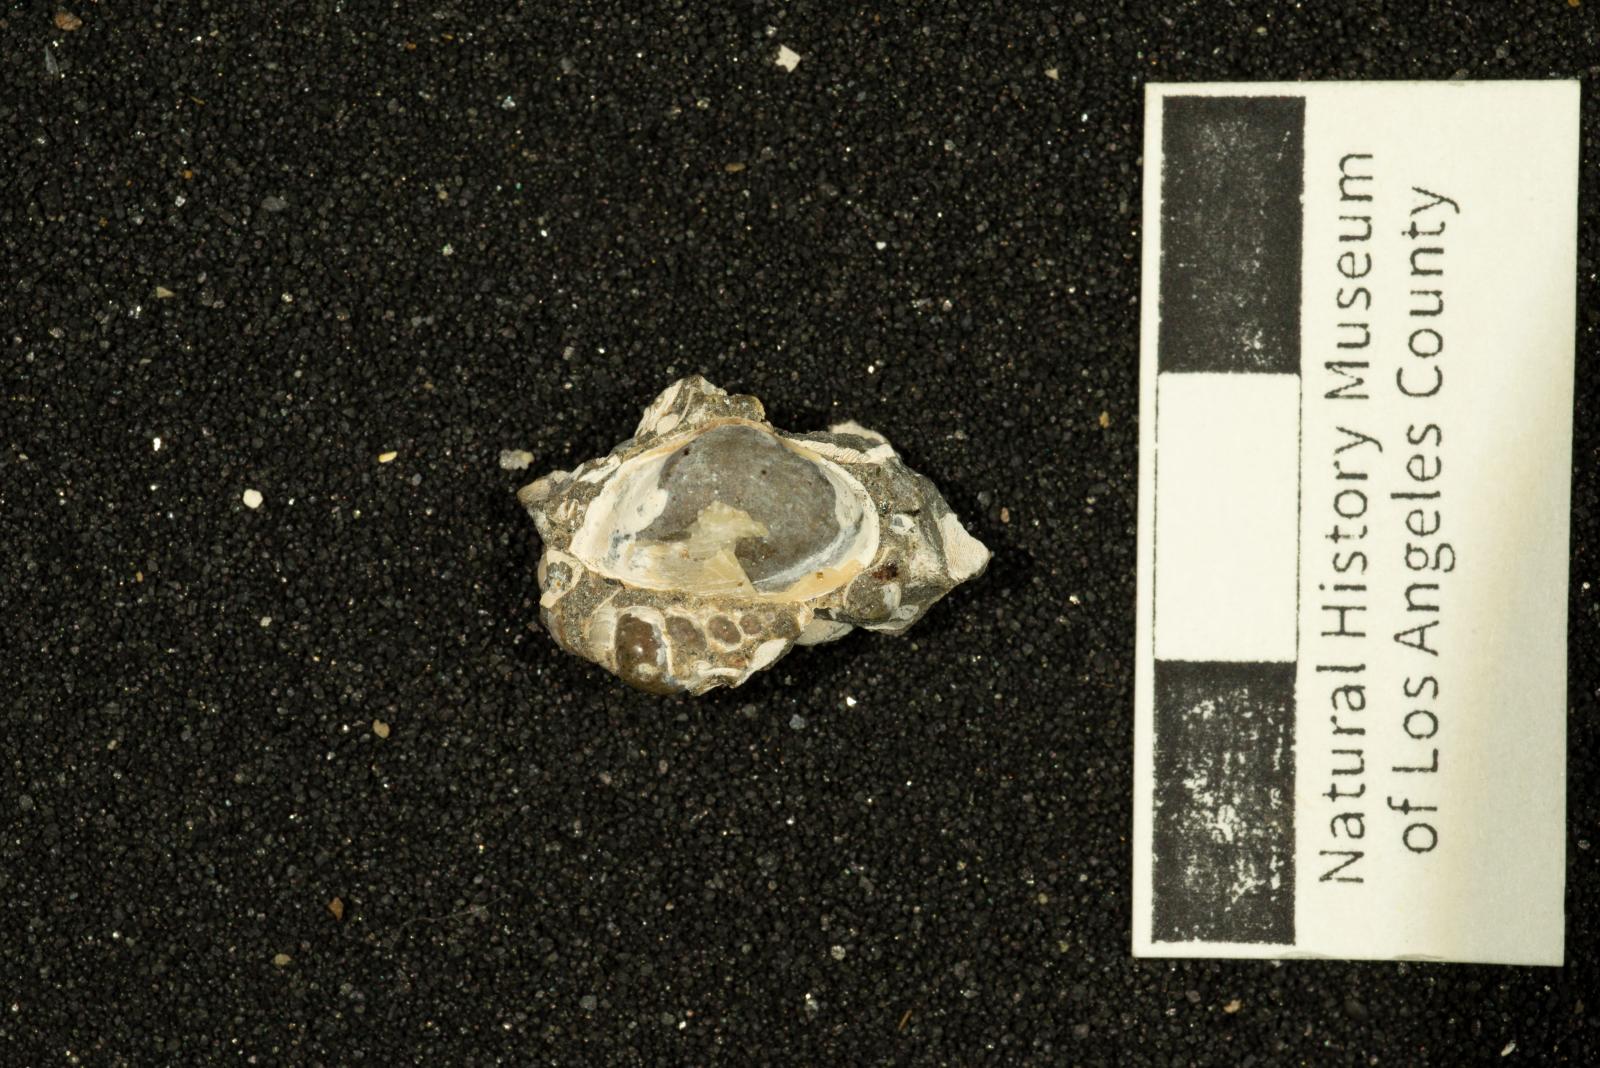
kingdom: Animalia
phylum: Mollusca
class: Bivalvia
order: Myida
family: Corbulidae
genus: Caryocorbula
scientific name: Caryocorbula vacca
